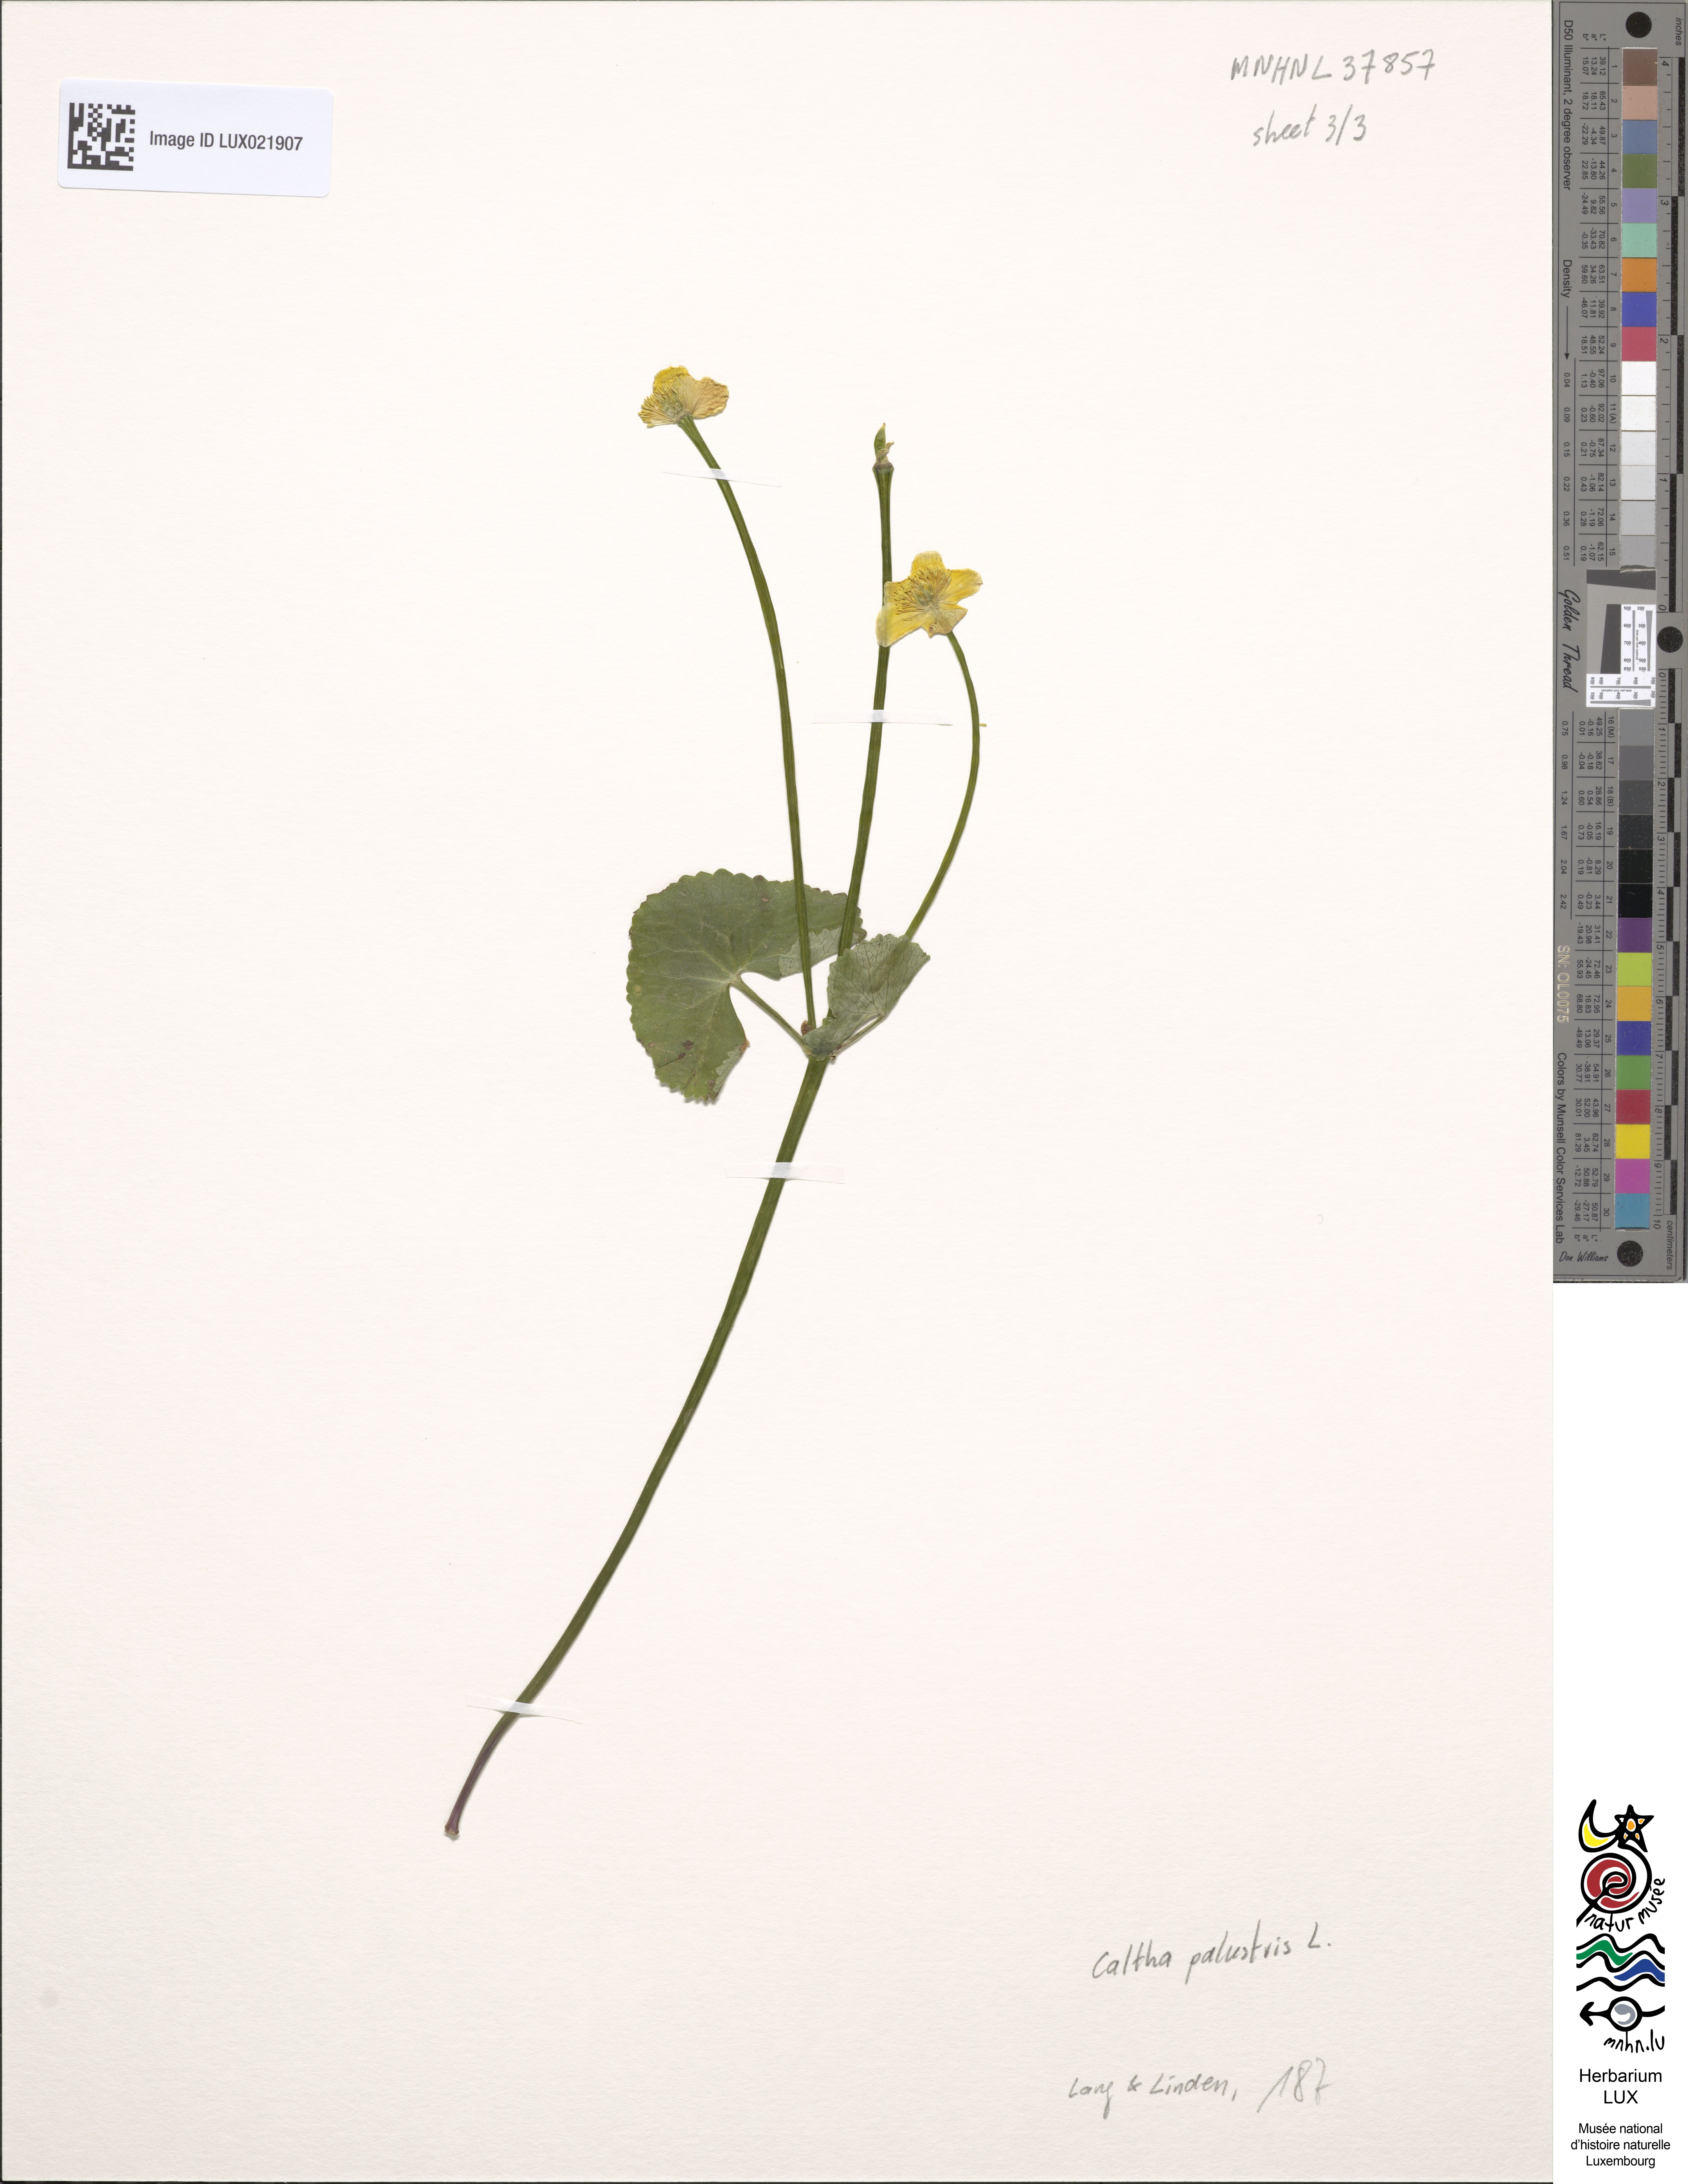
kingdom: Plantae
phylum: Tracheophyta
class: Magnoliopsida
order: Ranunculales
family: Ranunculaceae
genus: Caltha
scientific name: Caltha palustris
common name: Marsh marigold
